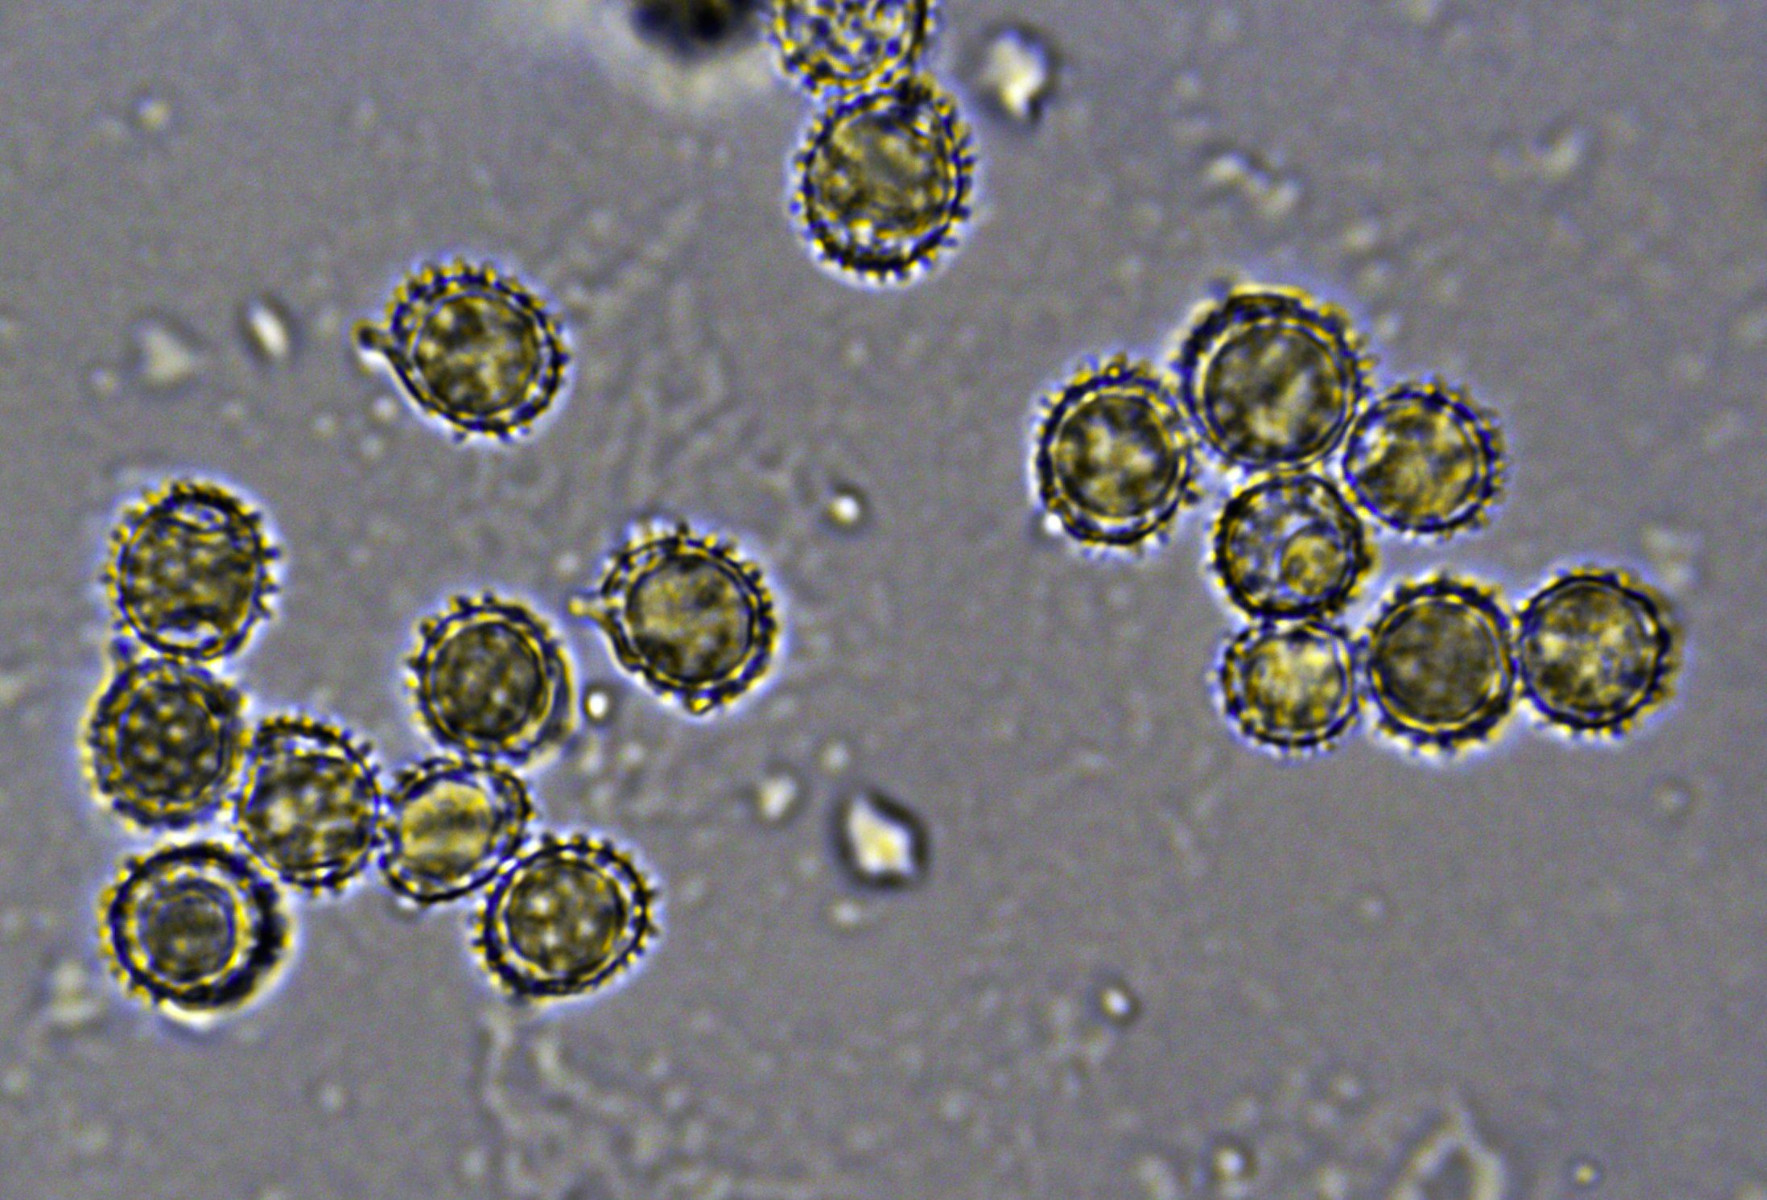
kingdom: Fungi
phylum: Basidiomycota
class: Agaricomycetes
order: Russulales
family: Russulaceae
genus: Russula
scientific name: Russula cuprea
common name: kanel-skørhat
